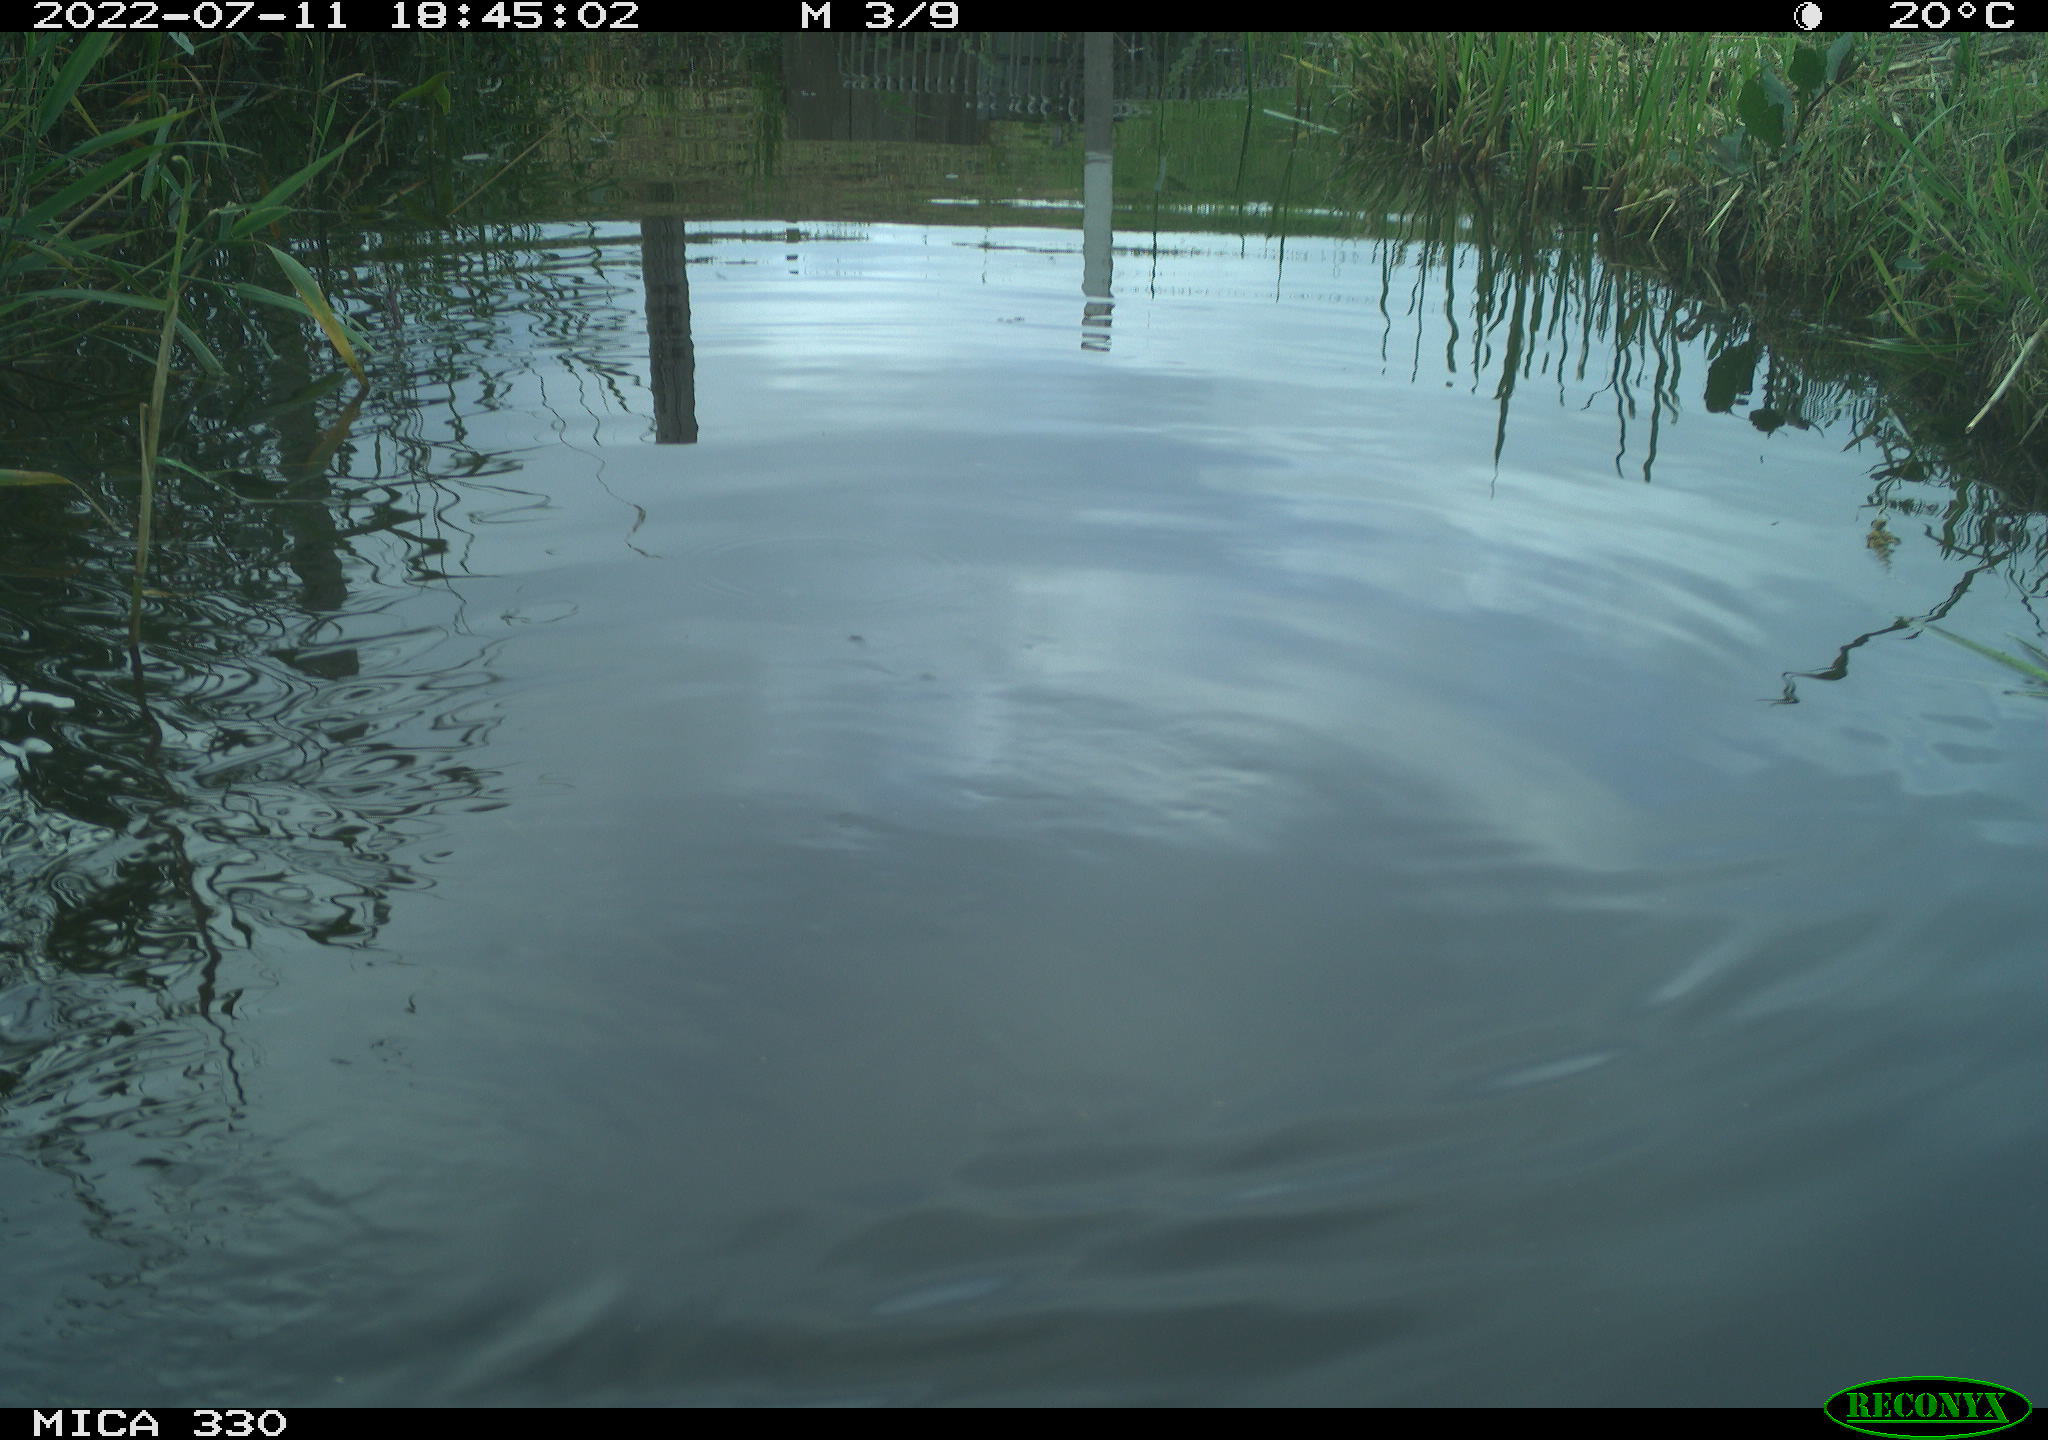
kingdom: Animalia
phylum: Chordata
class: Aves
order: Anseriformes
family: Anatidae
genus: Mareca
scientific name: Mareca strepera
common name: Gadwall
